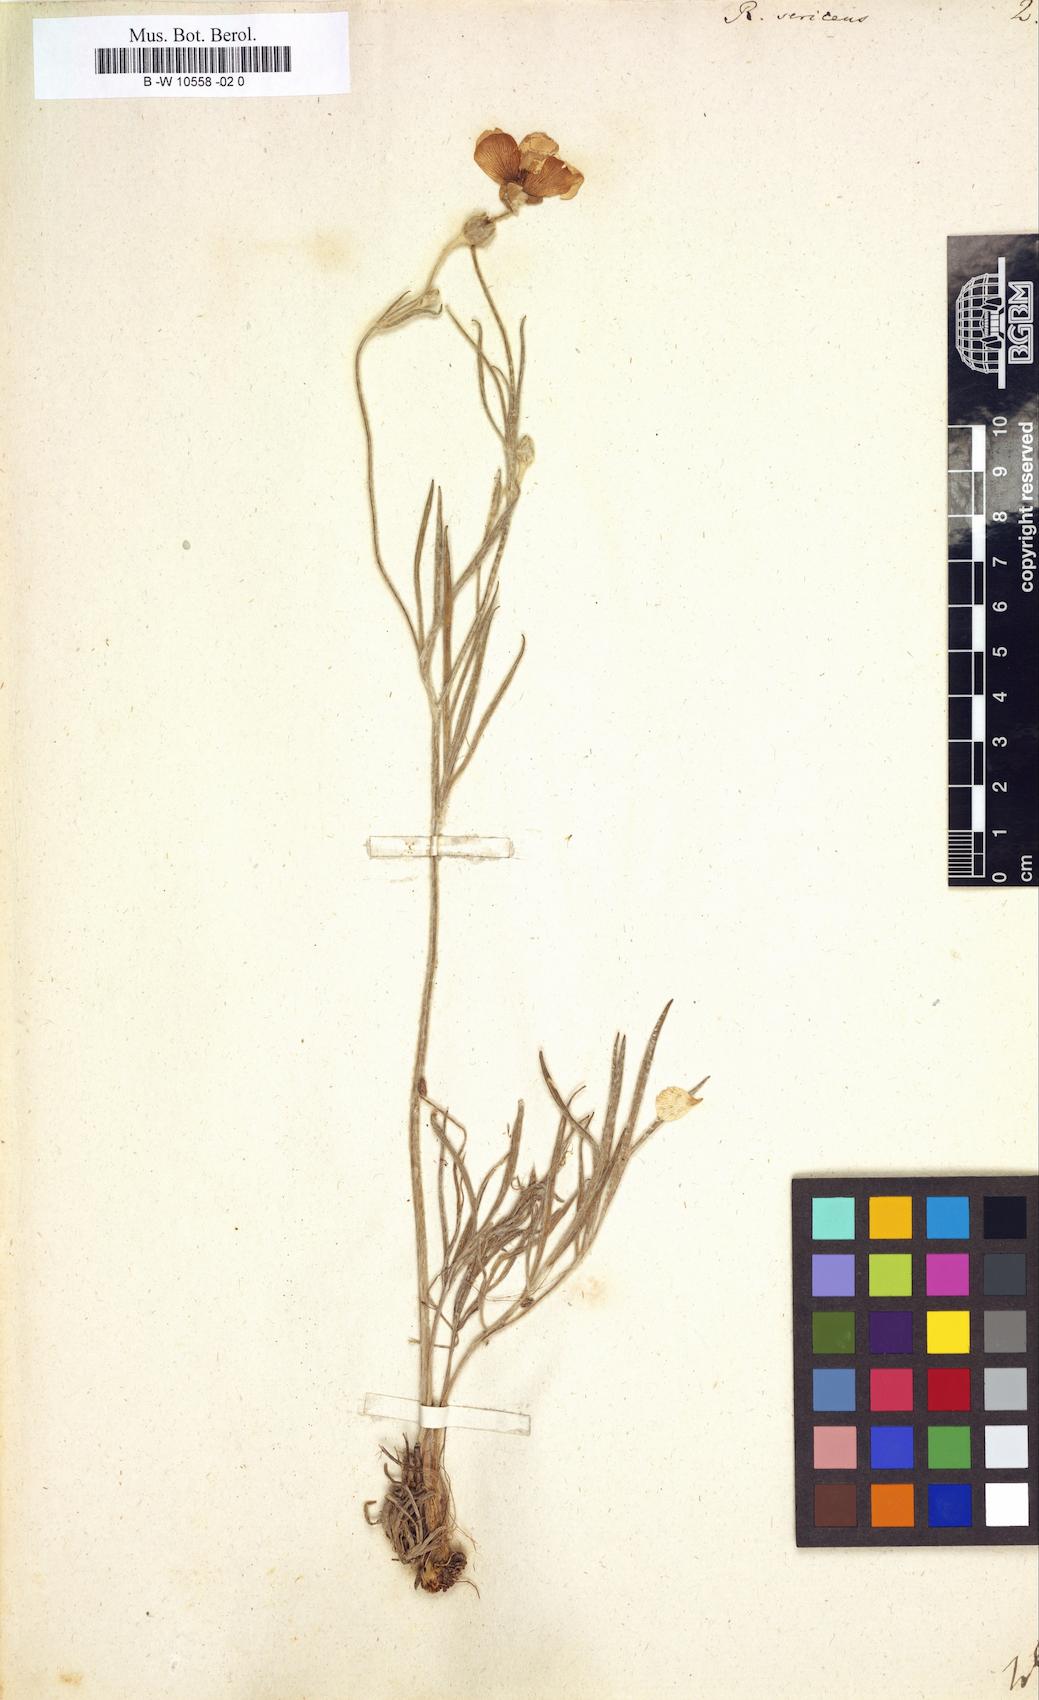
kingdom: Plantae
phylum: Tracheophyta
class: Magnoliopsida
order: Ranunculales
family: Ranunculaceae
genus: Ranunculus
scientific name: Ranunculus sericeus
